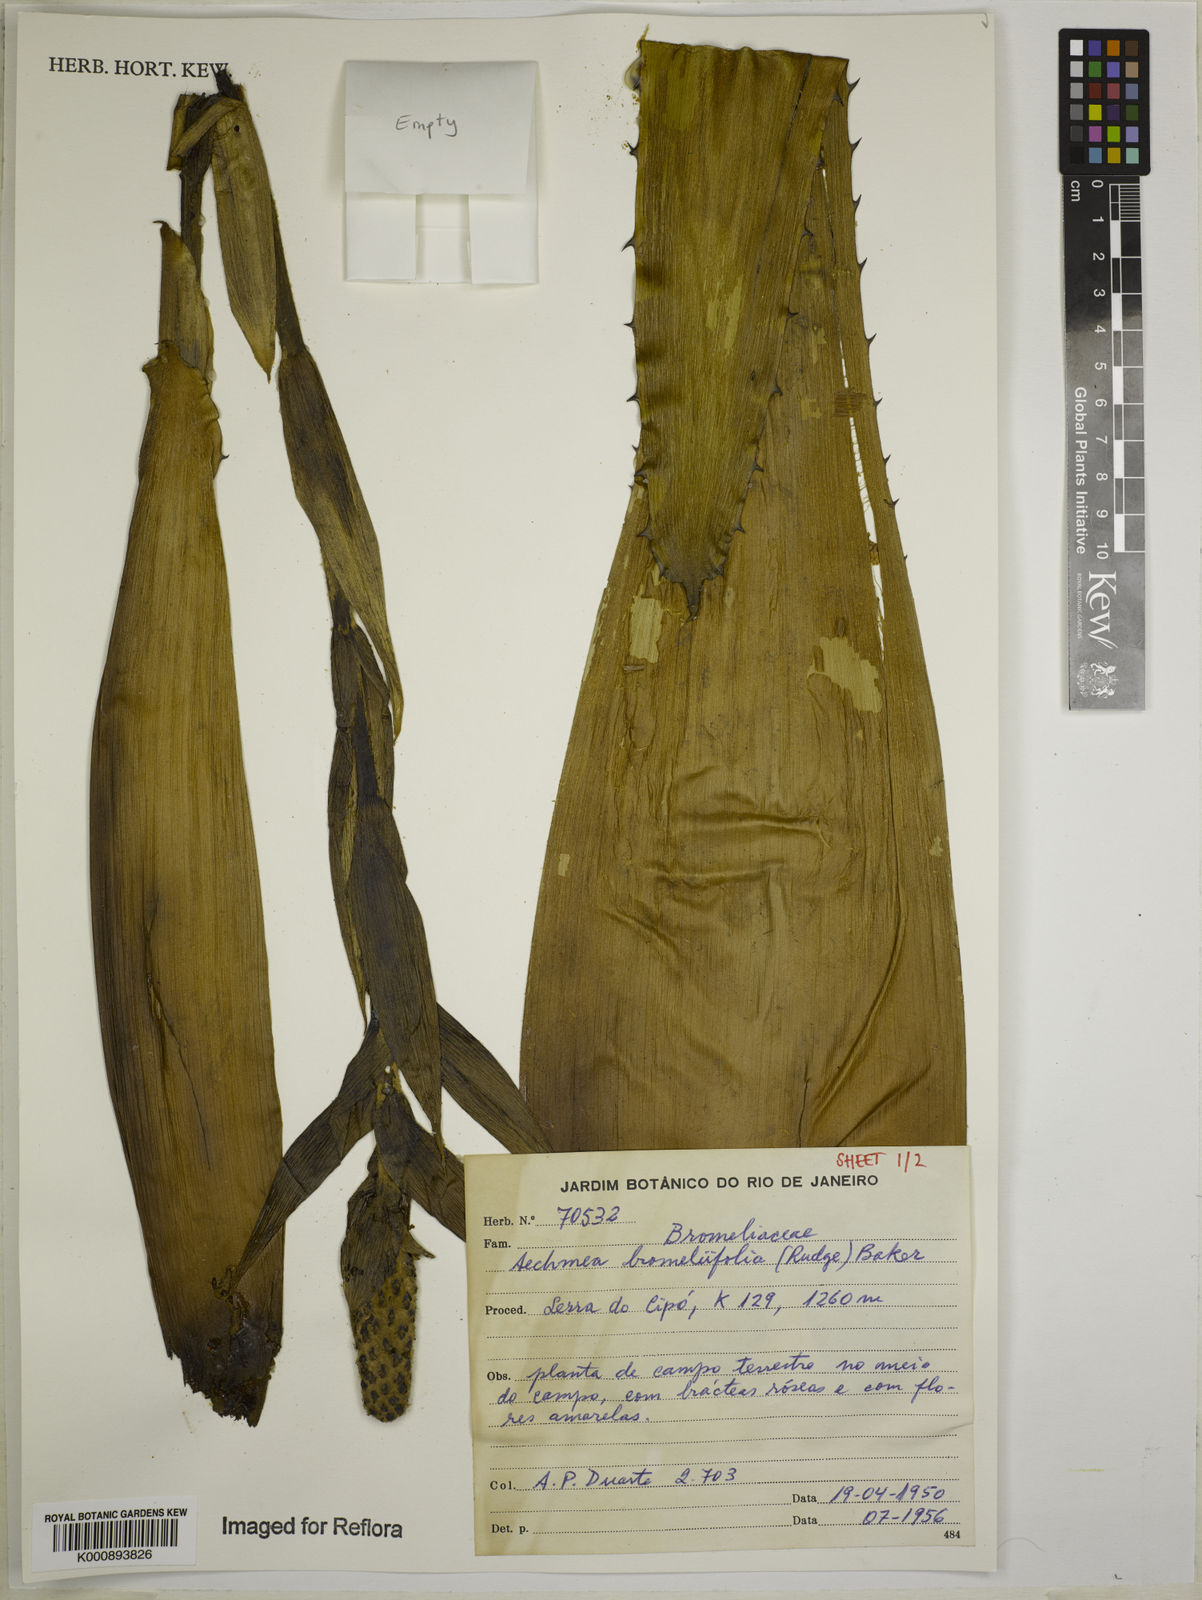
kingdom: Plantae
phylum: Tracheophyta
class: Liliopsida
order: Poales
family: Bromeliaceae
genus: Aechmea
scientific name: Aechmea
